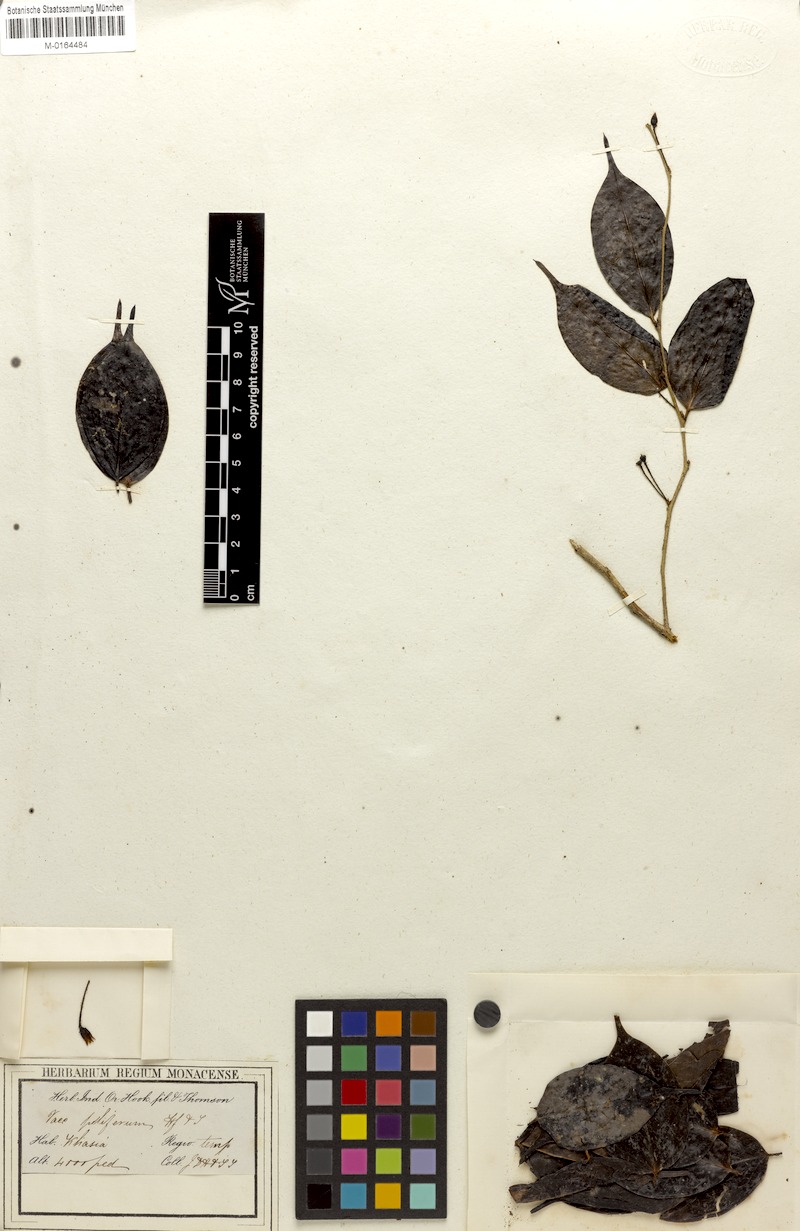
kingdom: Plantae
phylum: Tracheophyta
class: Magnoliopsida
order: Ericales
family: Ericaceae
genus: Vaccinium
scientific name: Vaccinium piliferum
